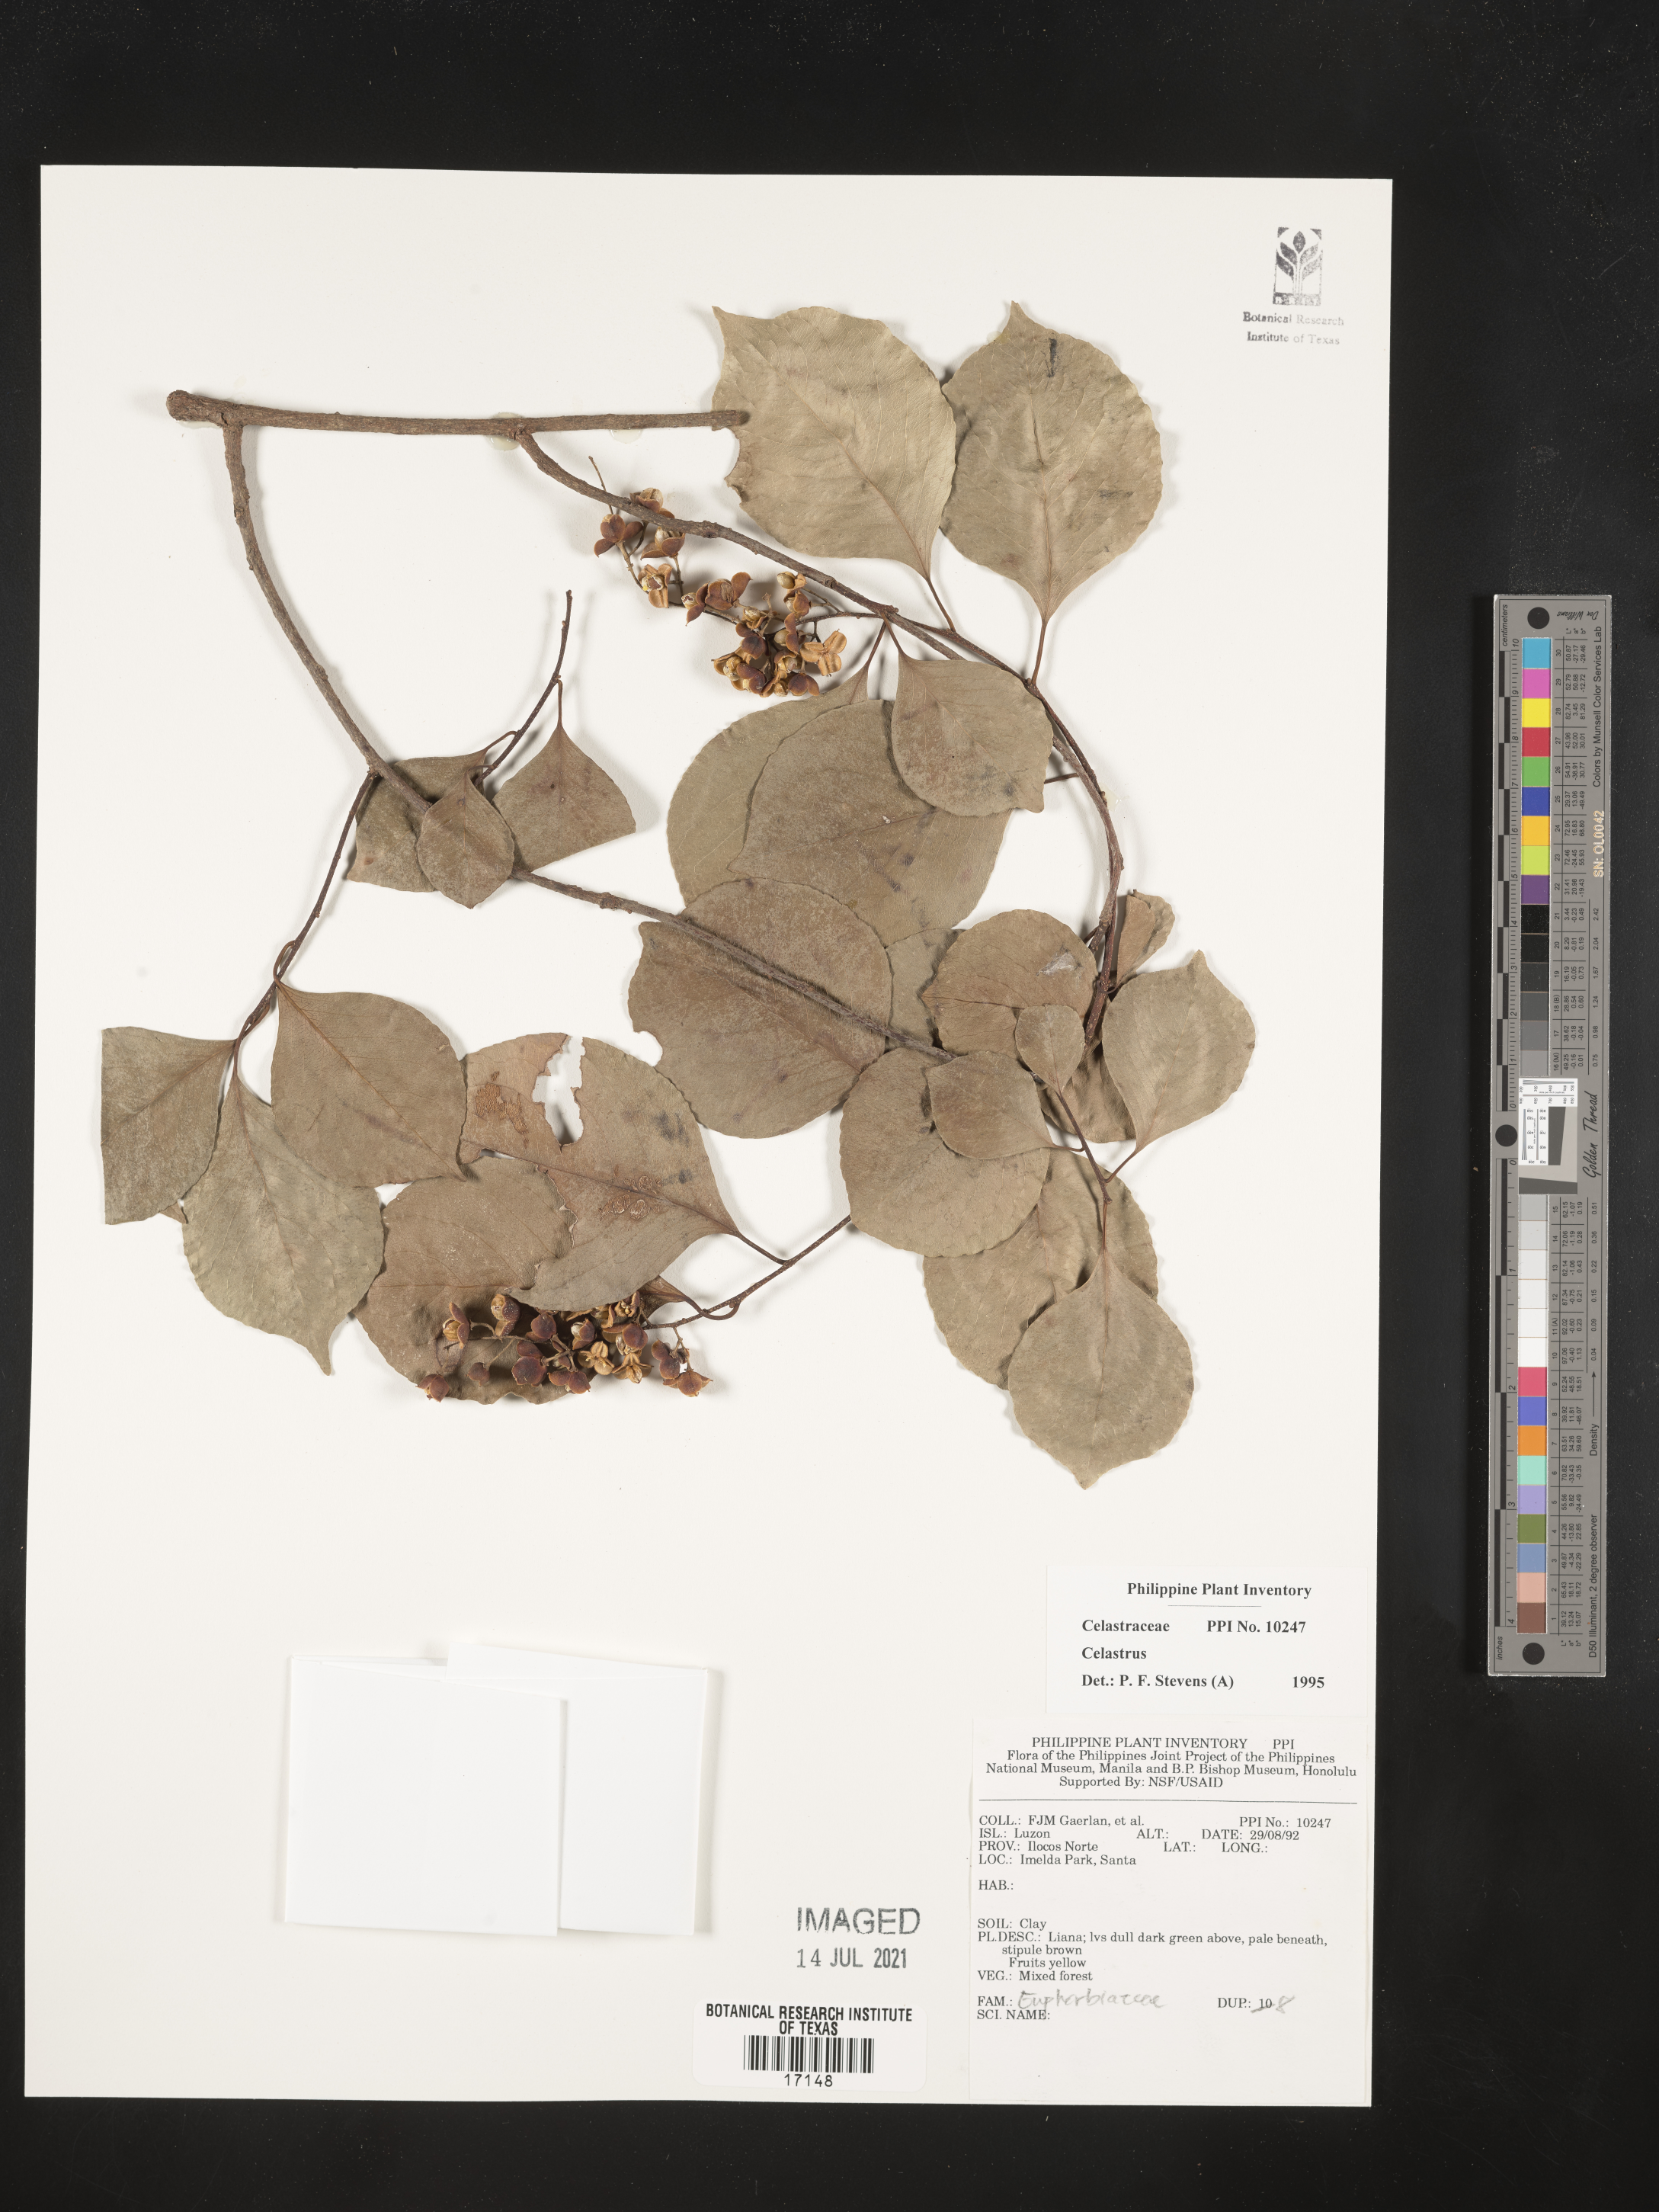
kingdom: Plantae
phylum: Tracheophyta
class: Magnoliopsida
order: Celastrales
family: Celastraceae
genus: Celastrus
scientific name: Celastrus
